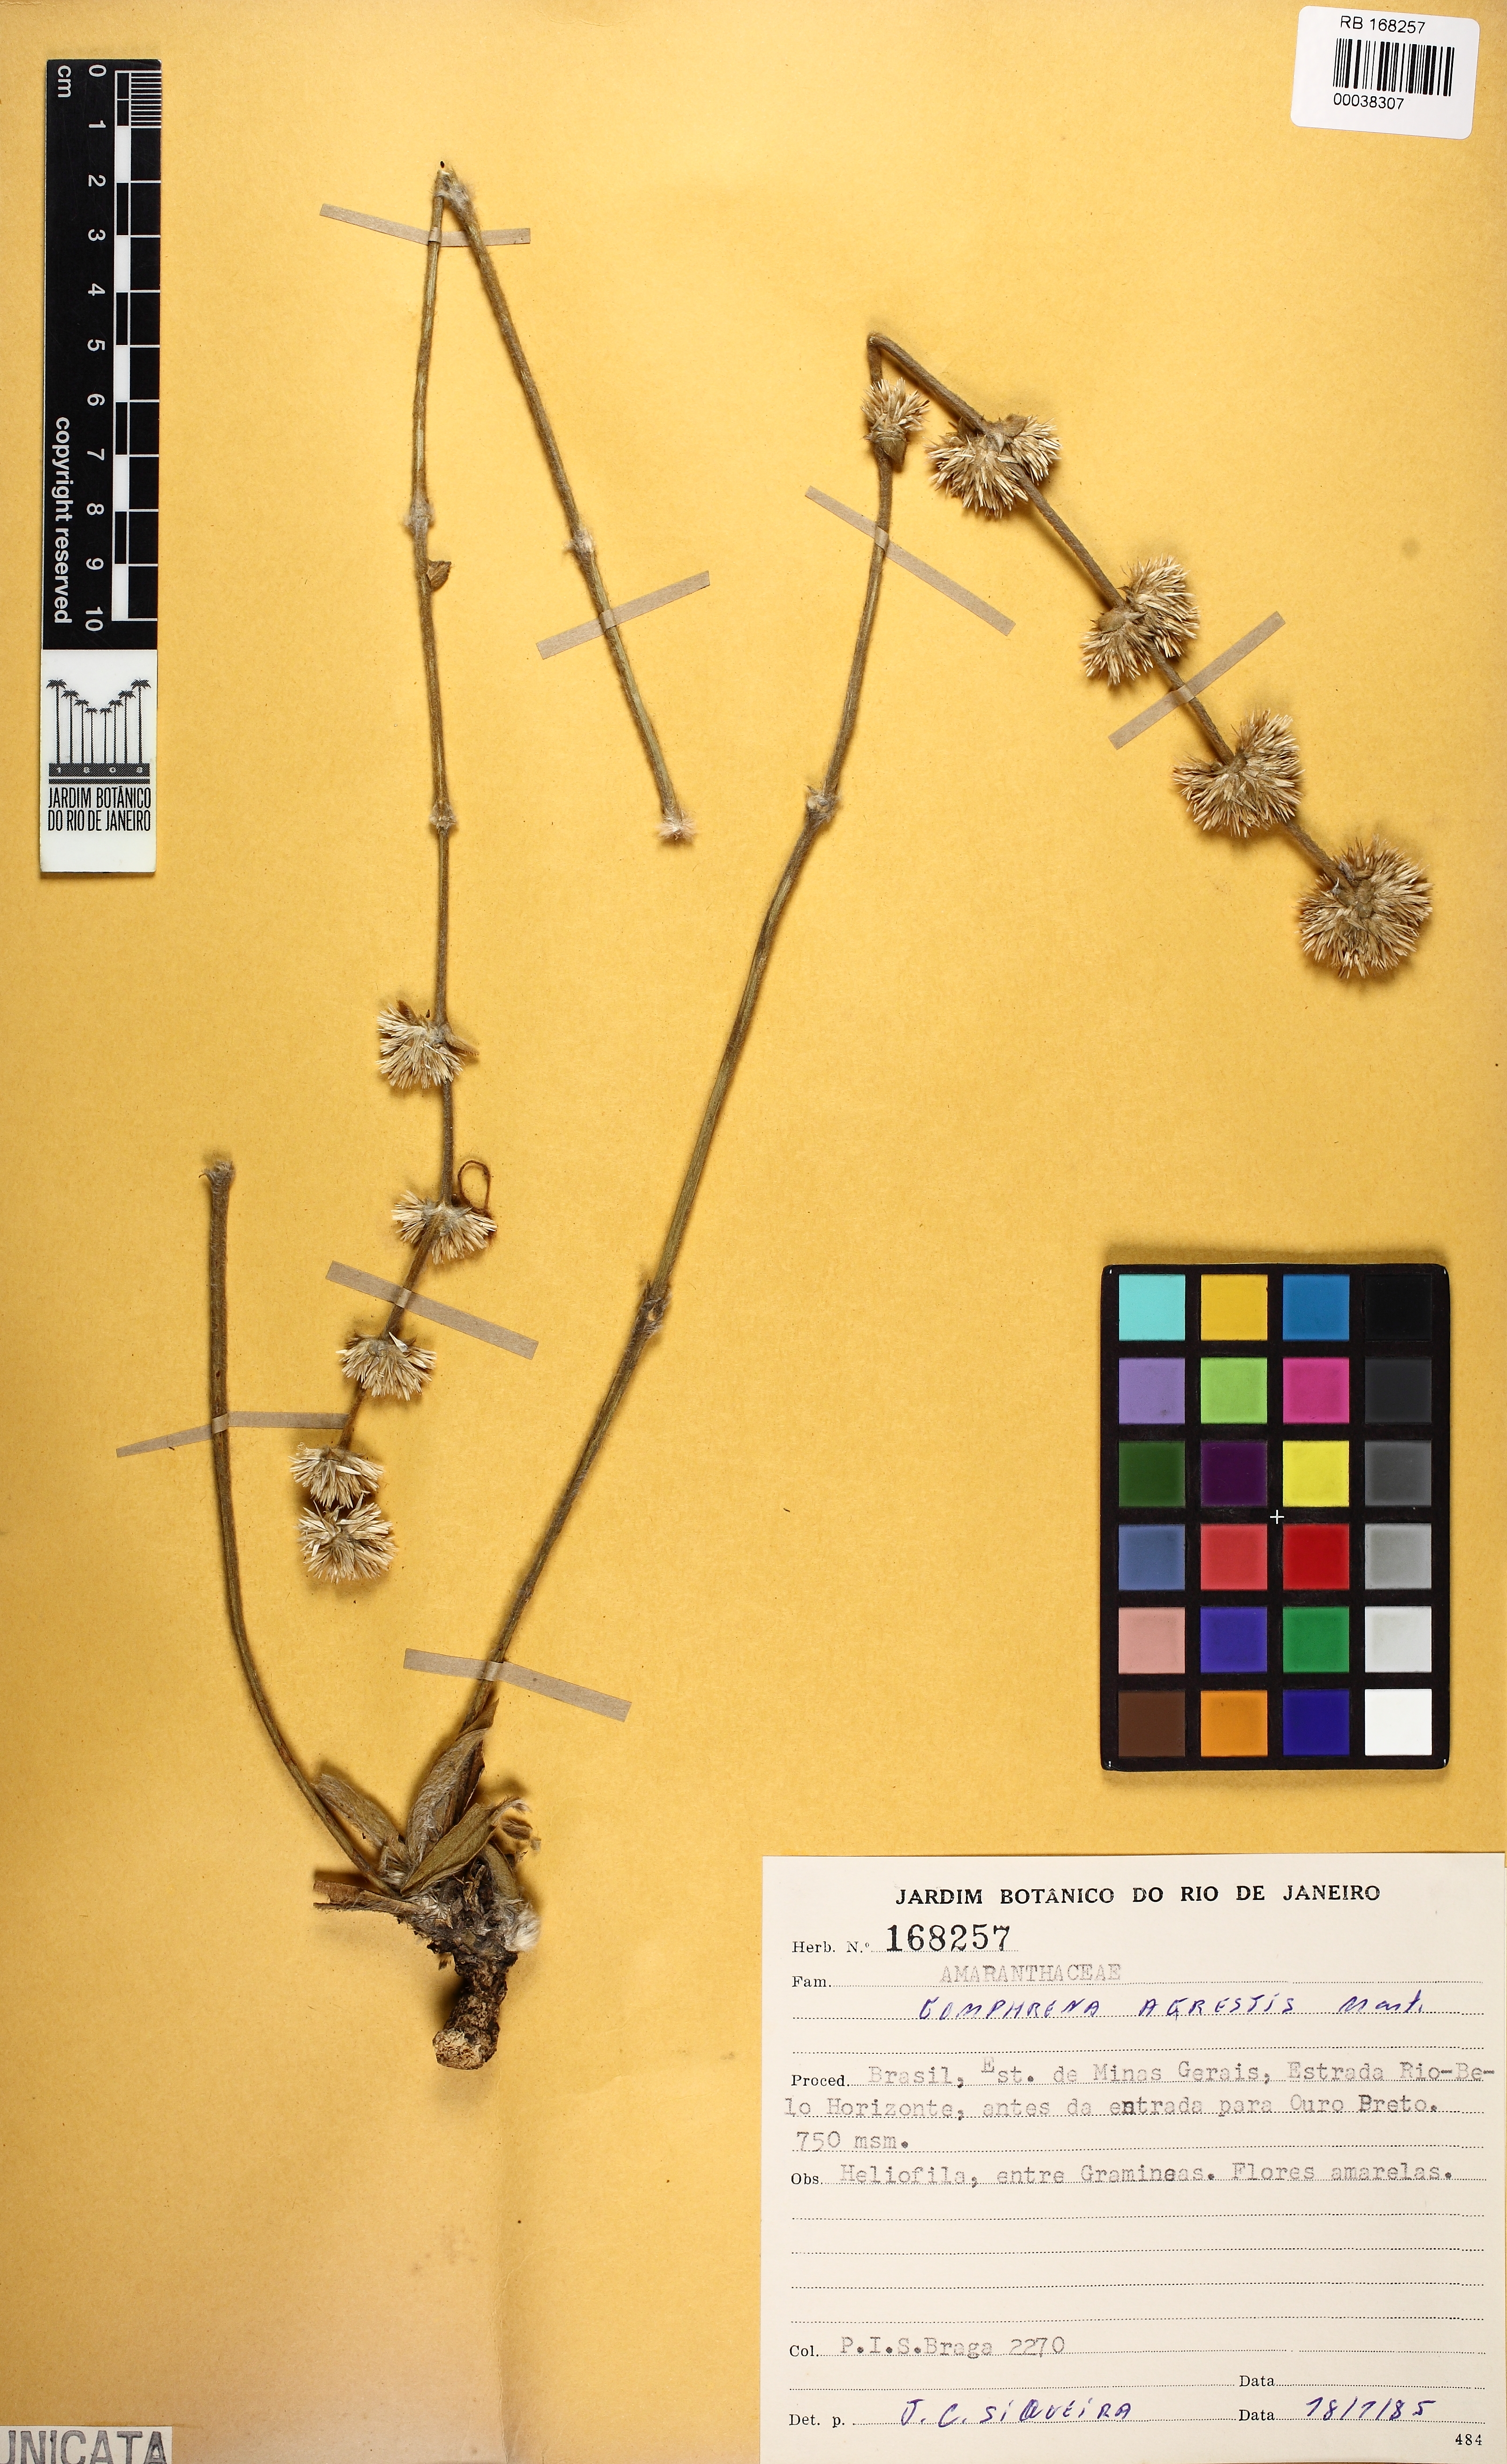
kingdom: Plantae
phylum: Tracheophyta
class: Magnoliopsida
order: Caryophyllales
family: Amaranthaceae
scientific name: Amaranthaceae
